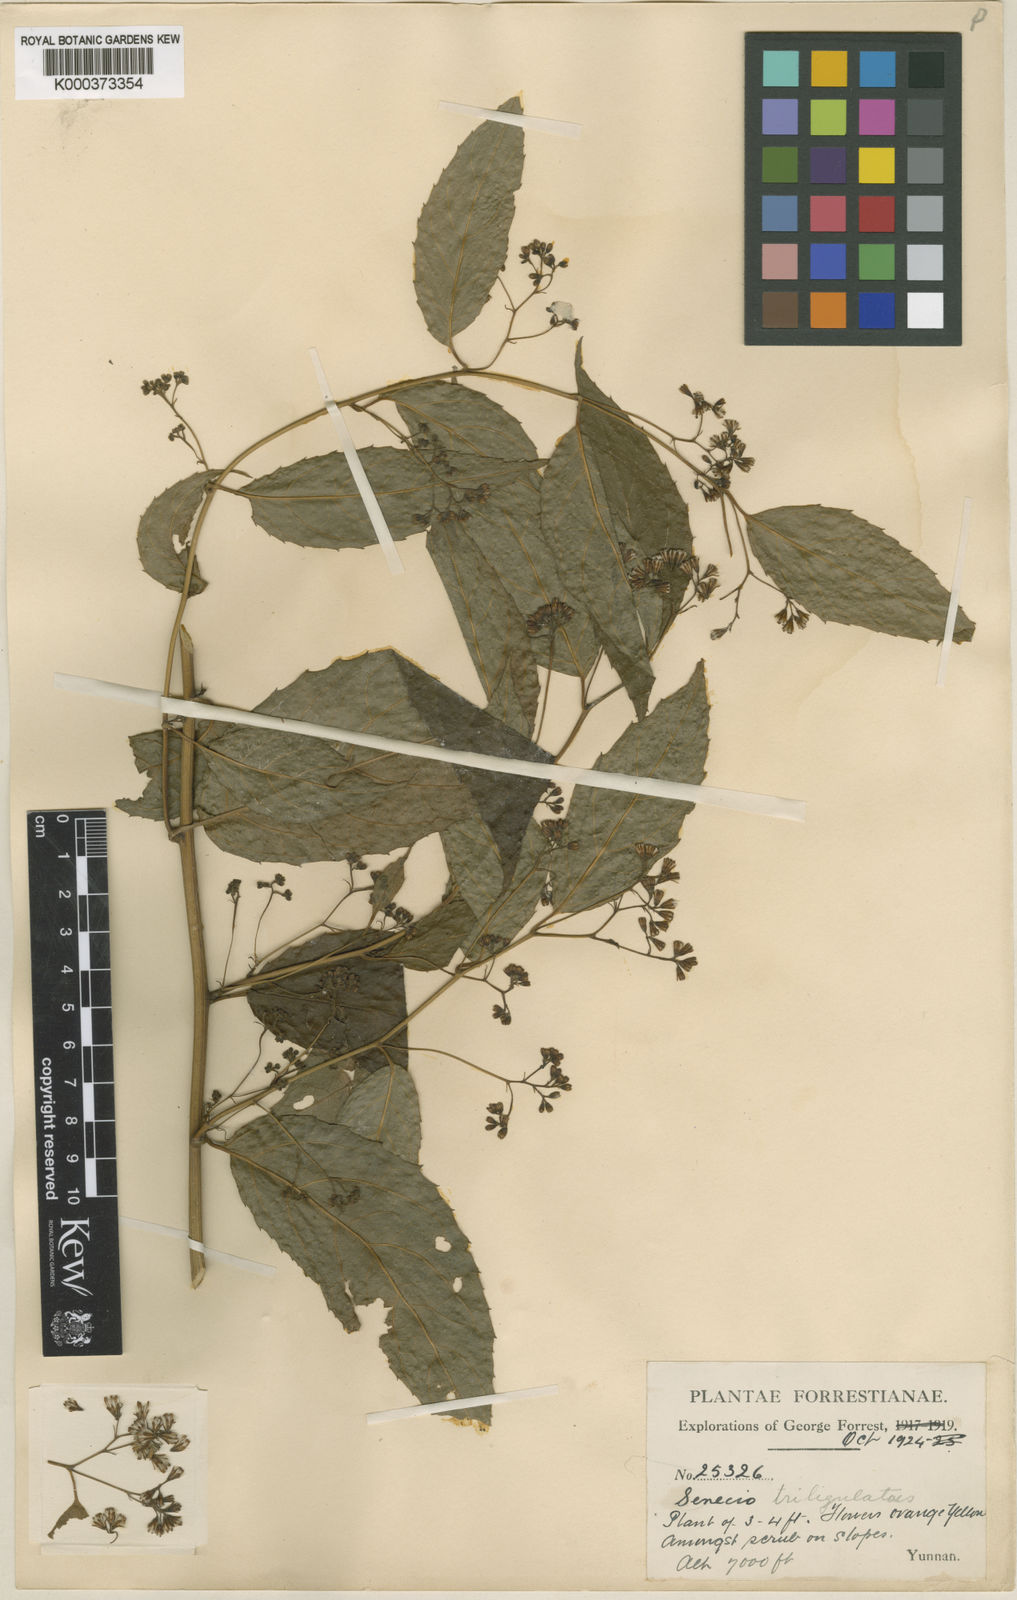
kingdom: Plantae
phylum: Tracheophyta
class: Magnoliopsida
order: Asterales
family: Asteraceae
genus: Synotis
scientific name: Synotis triligulata
